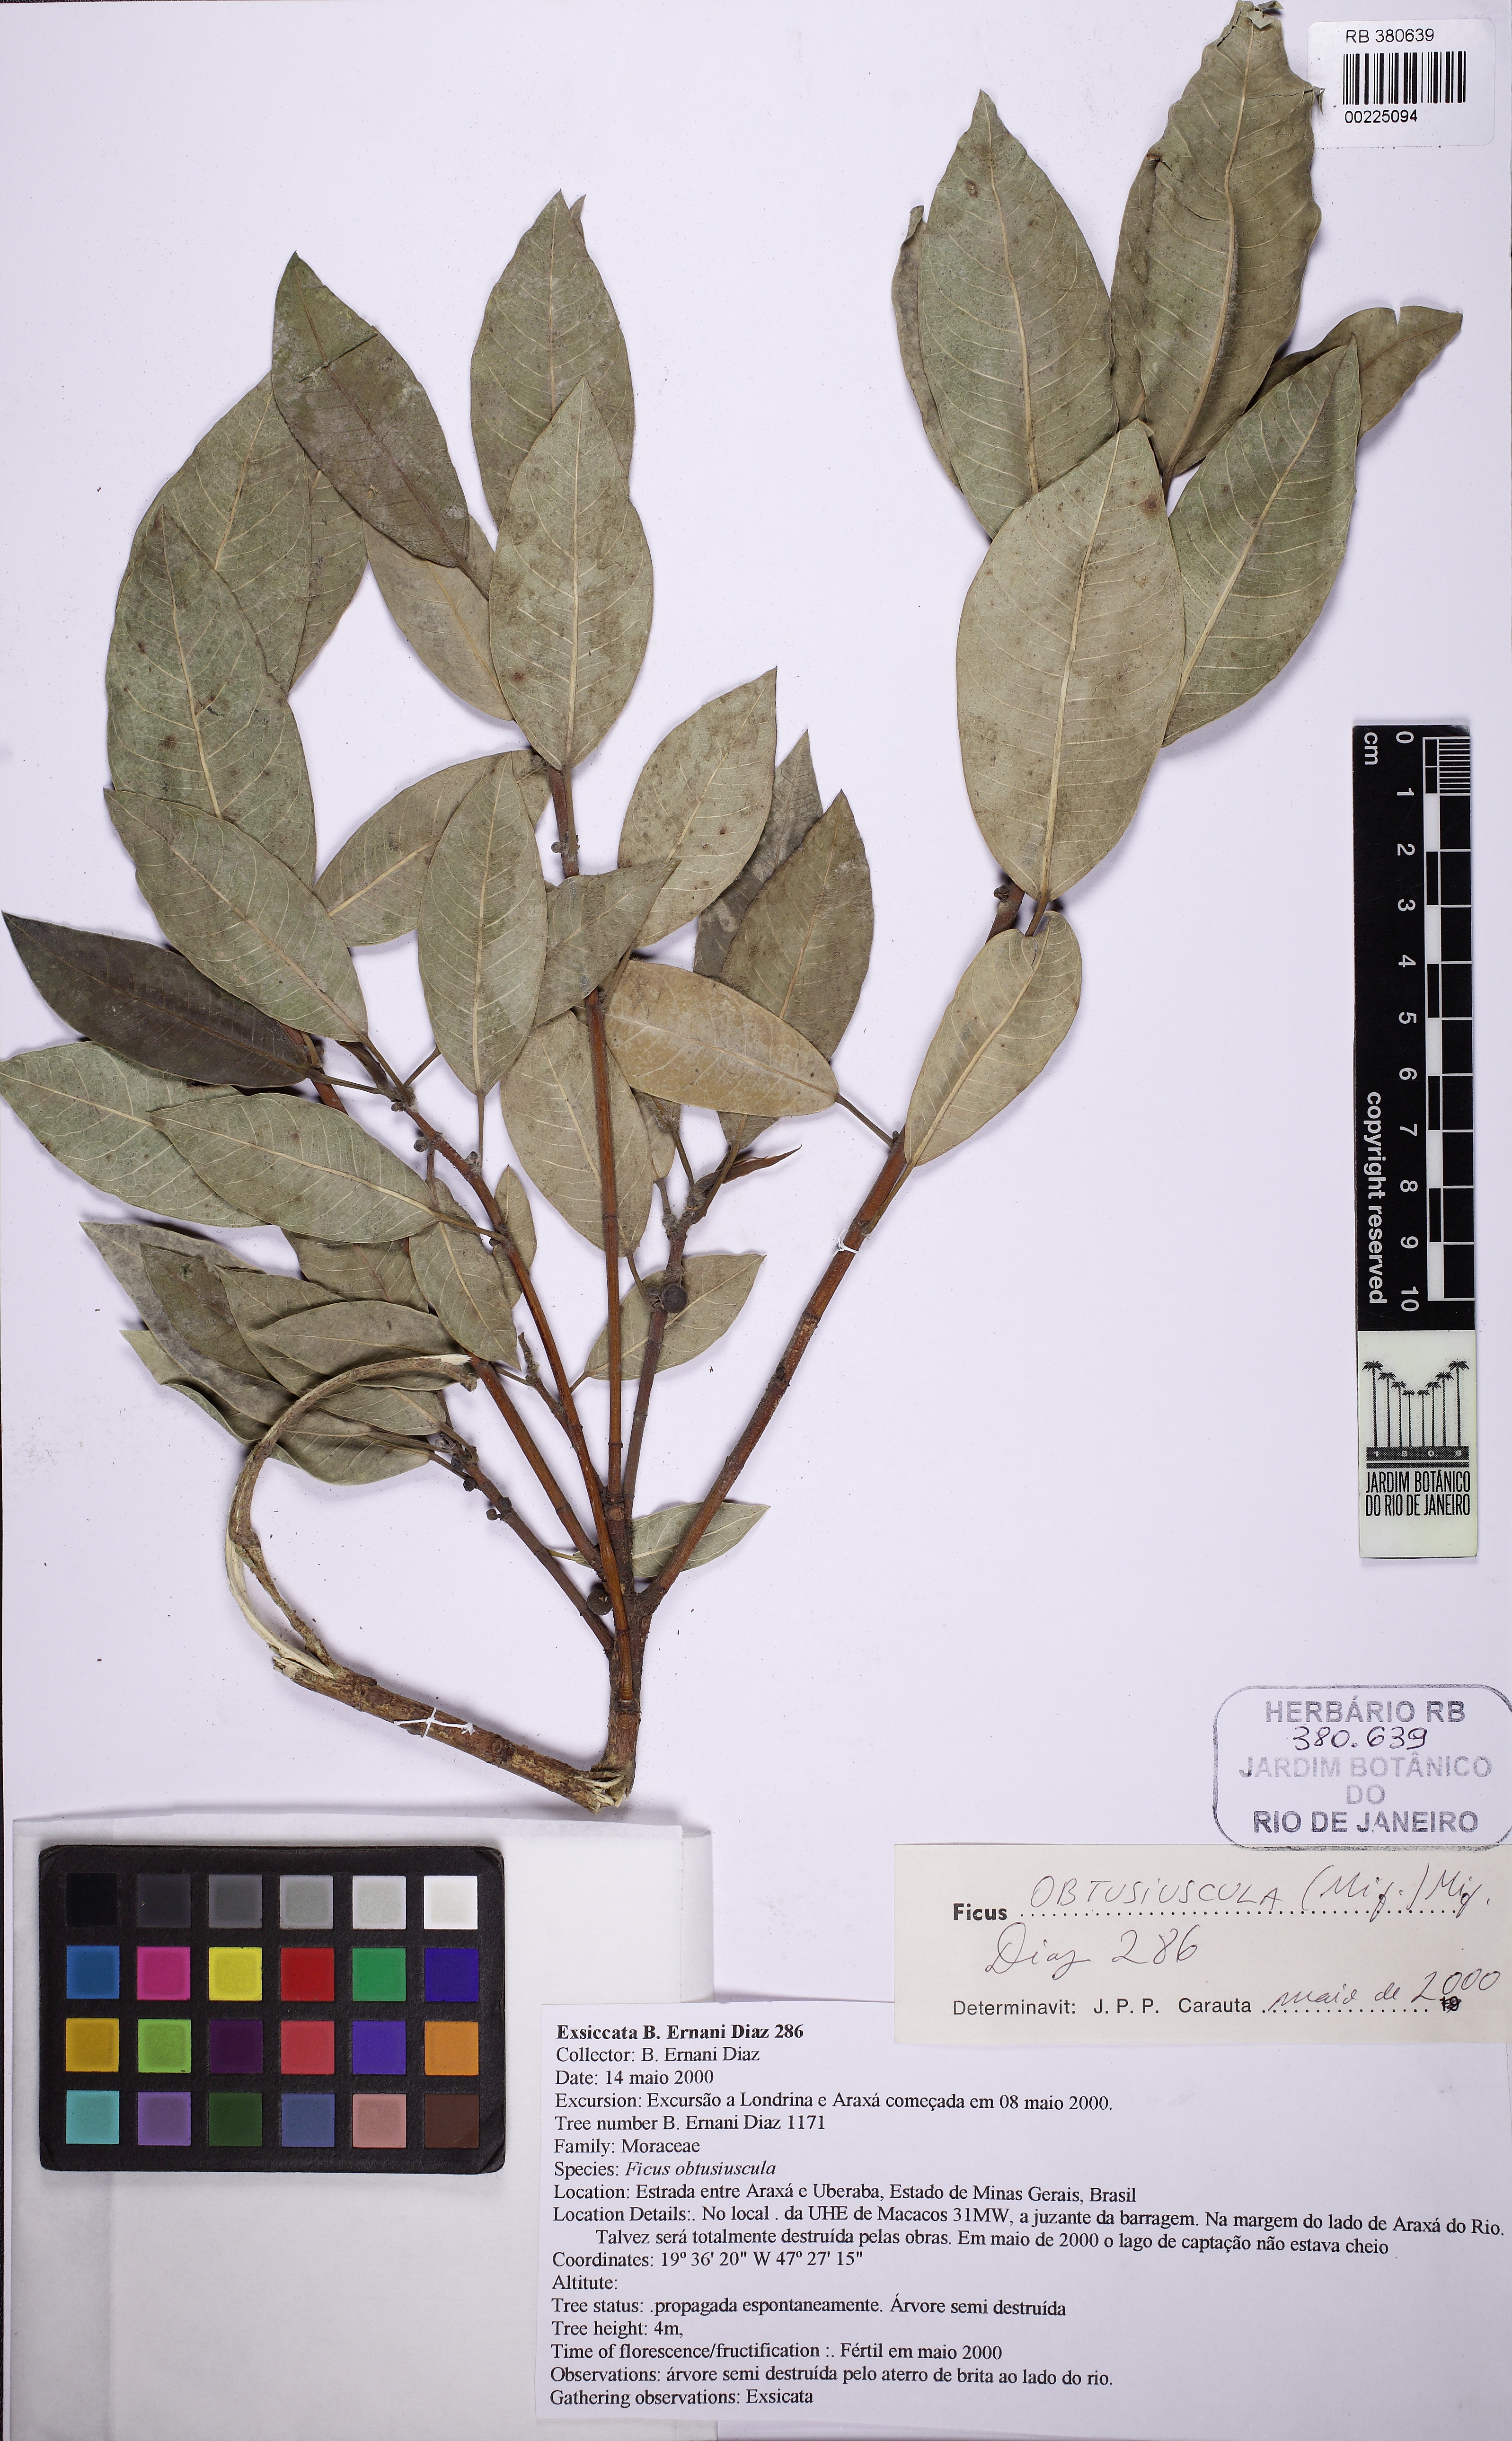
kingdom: Plantae
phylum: Tracheophyta
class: Magnoliopsida
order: Rosales
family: Moraceae
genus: Ficus
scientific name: Ficus obtusiuscula
